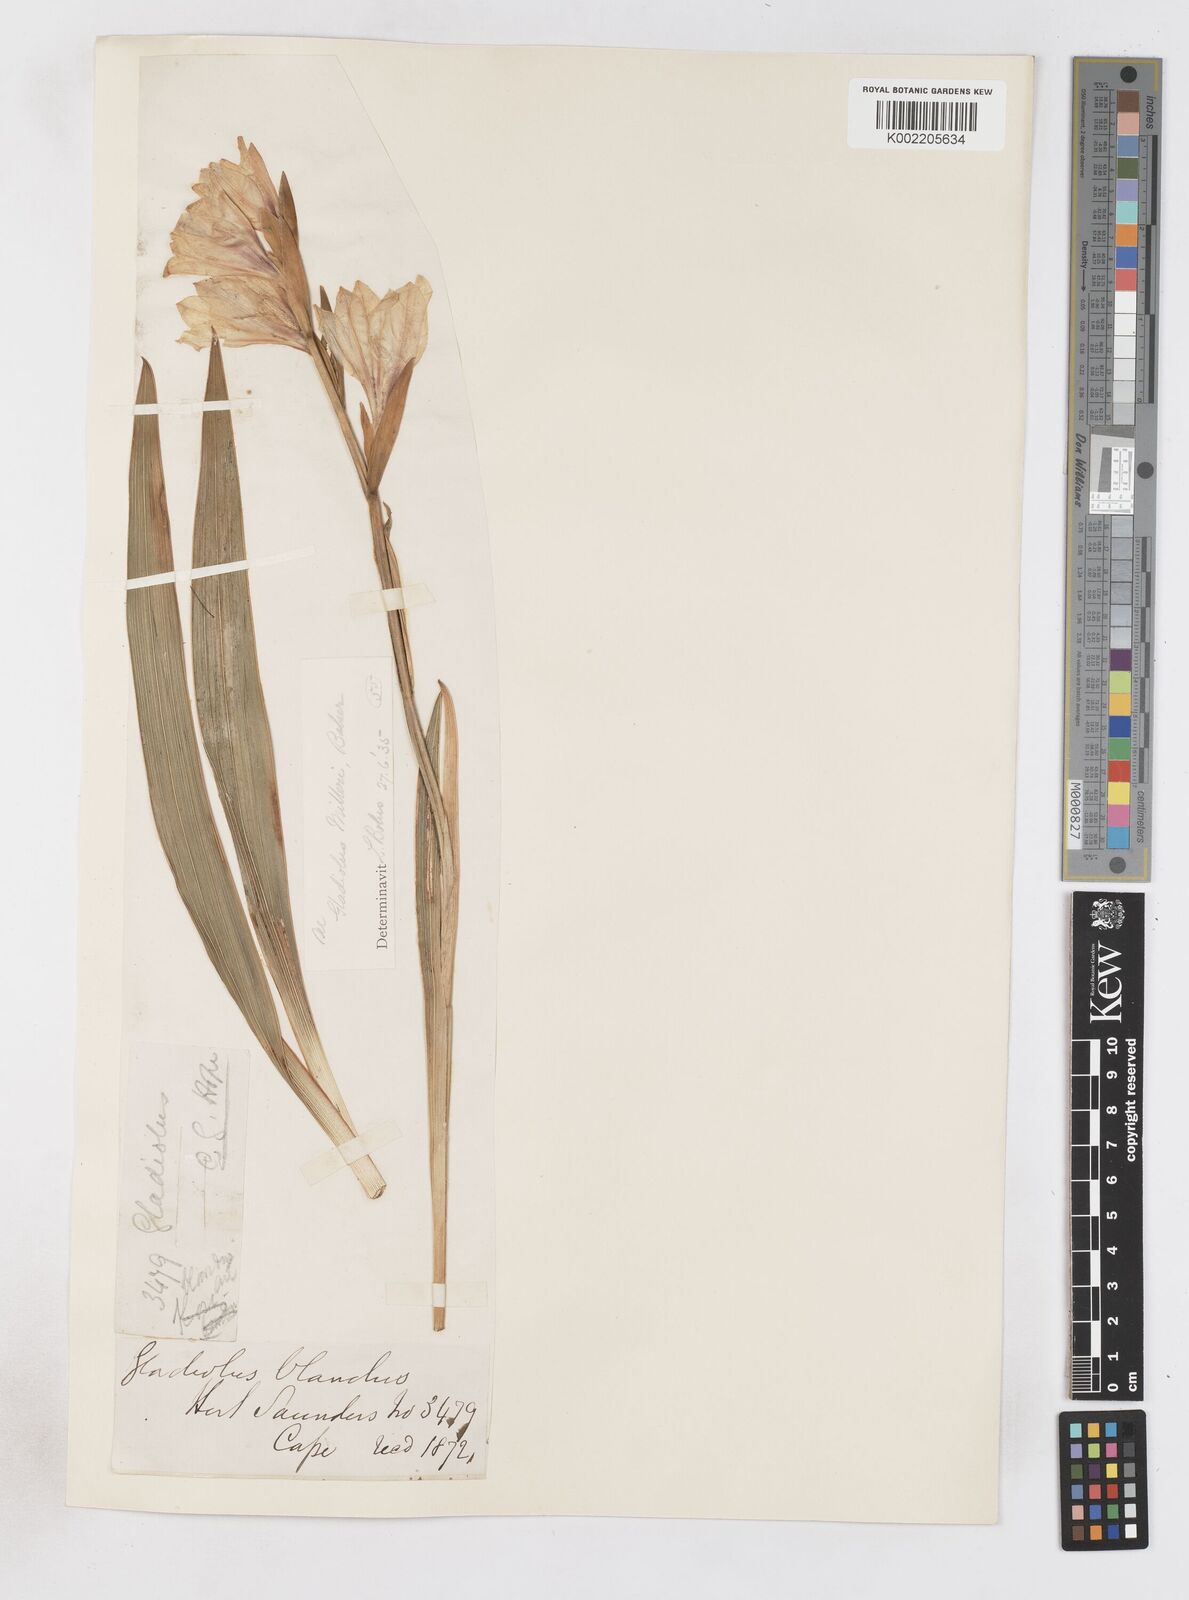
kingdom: Plantae
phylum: Tracheophyta
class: Liliopsida
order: Asparagales
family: Iridaceae
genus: Gladiolus
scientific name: Gladiolus grandiflorus
